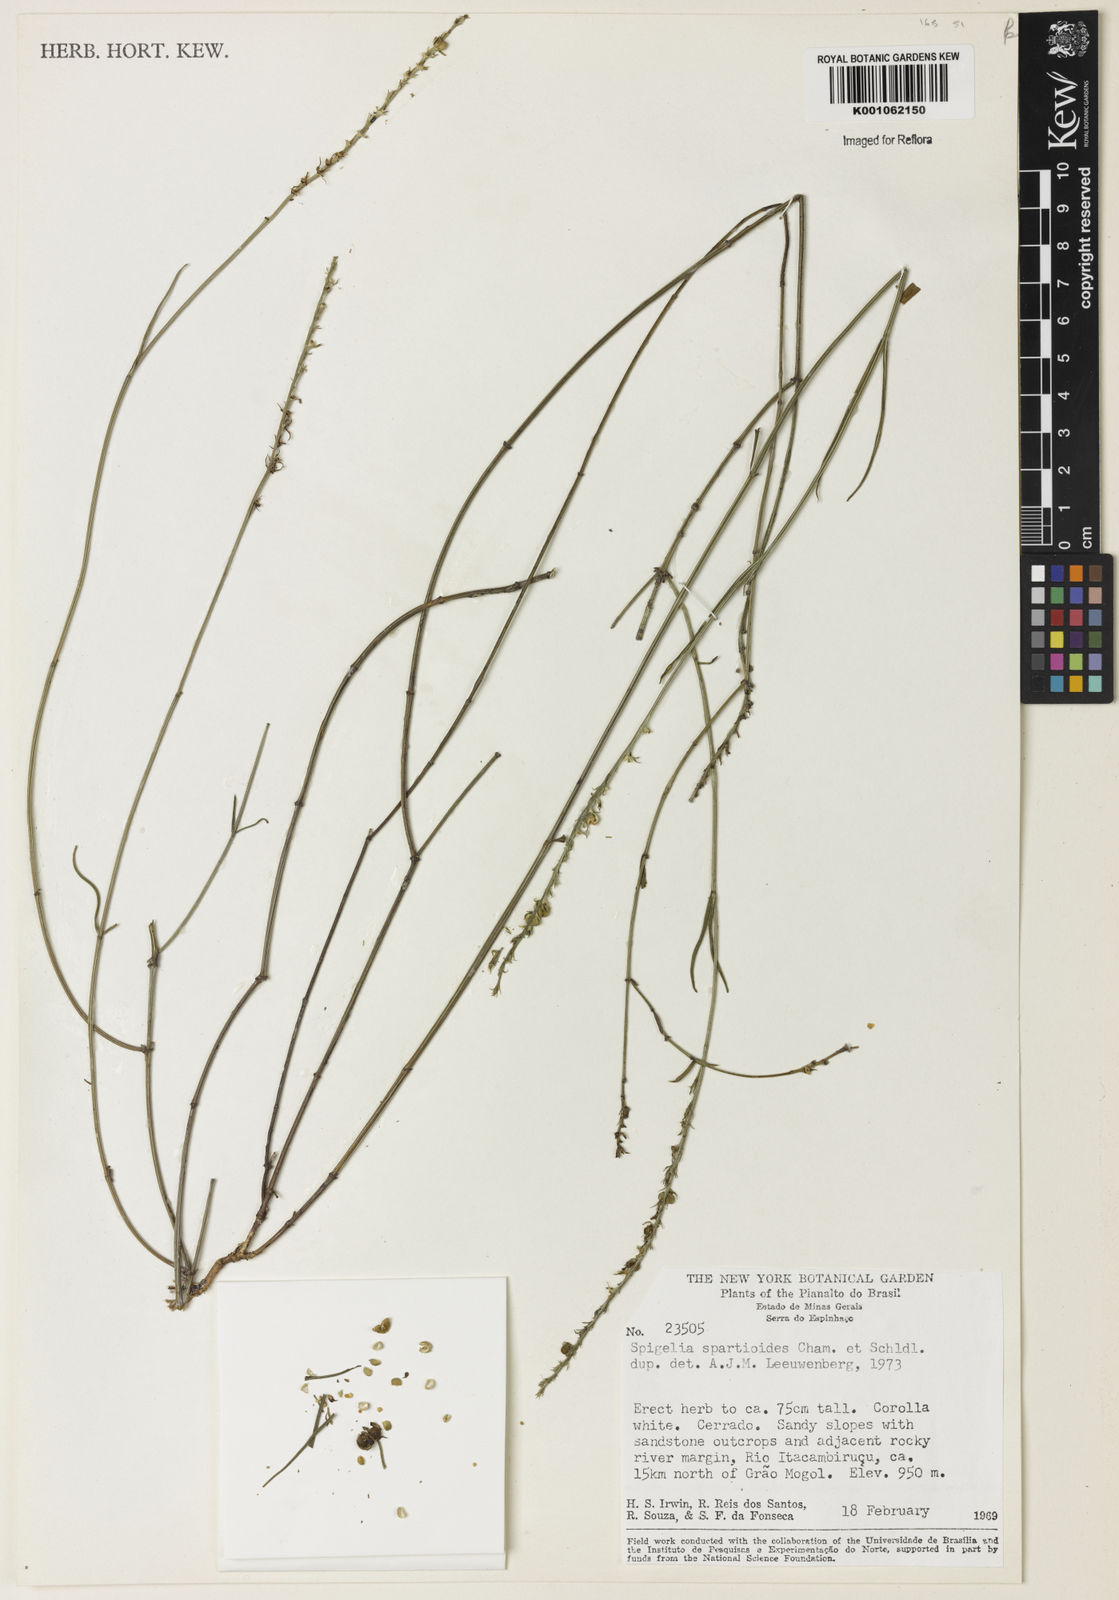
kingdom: Plantae
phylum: Tracheophyta
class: Magnoliopsida
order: Gentianales
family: Loganiaceae
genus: Spigelia
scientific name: Spigelia spartioides
